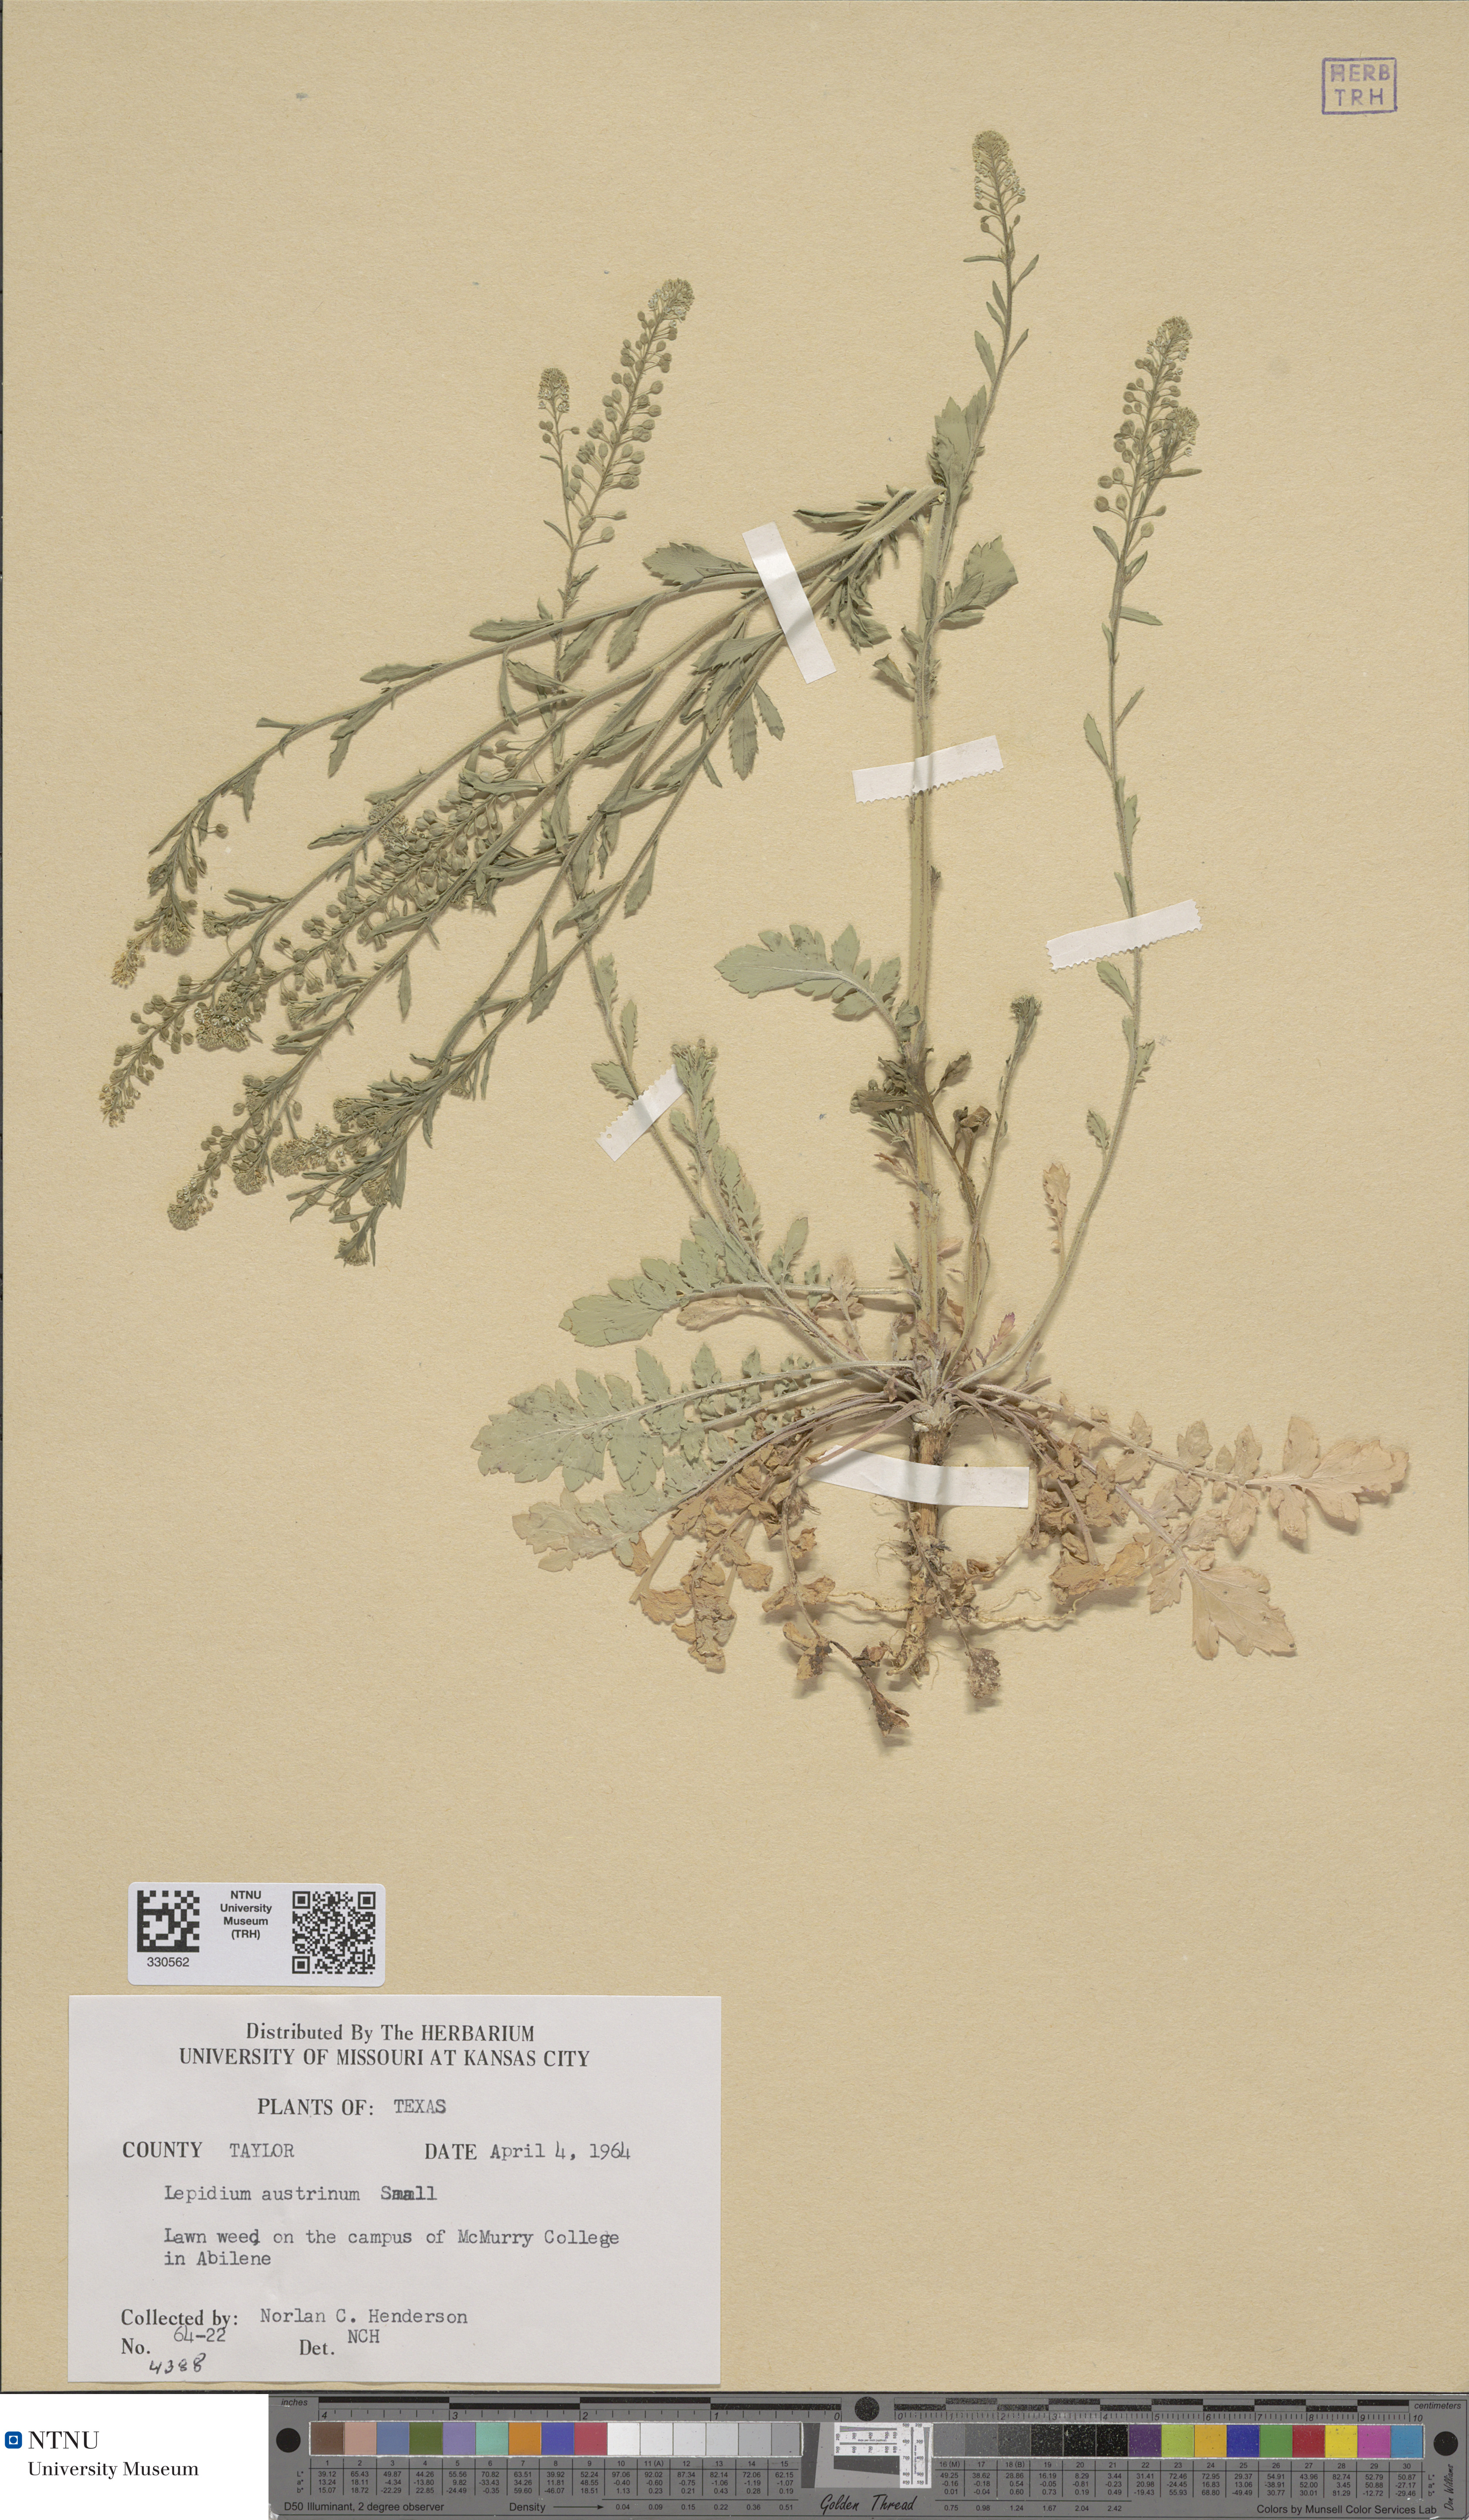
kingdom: Plantae
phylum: Tracheophyta
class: Magnoliopsida
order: Brassicales
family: Brassicaceae
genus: Lepidium
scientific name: Lepidium austrinum
